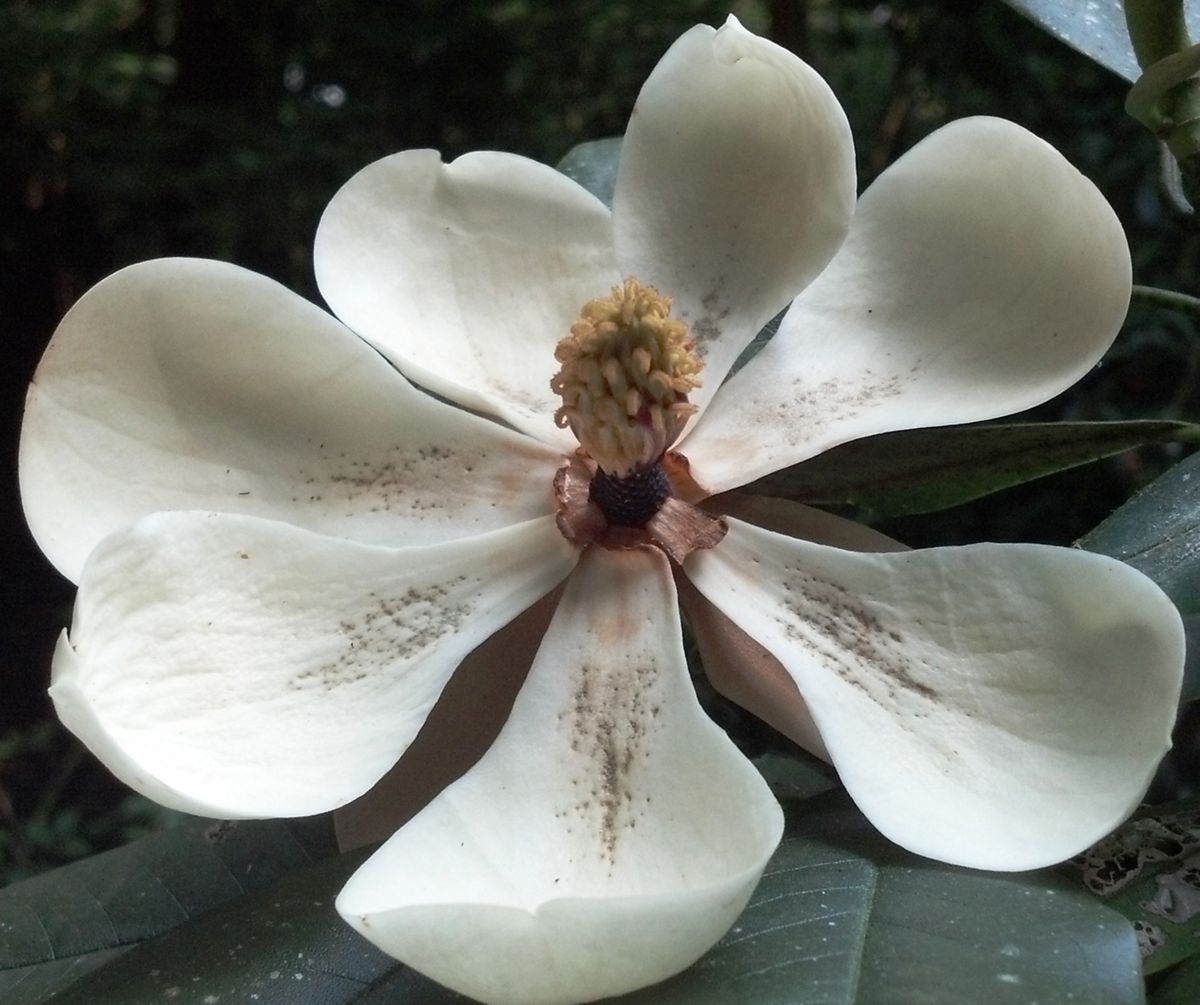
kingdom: Plantae
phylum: Tracheophyta
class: Magnoliopsida
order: Magnoliales
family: Magnoliaceae
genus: Magnolia
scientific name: Magnolia hondurensis
